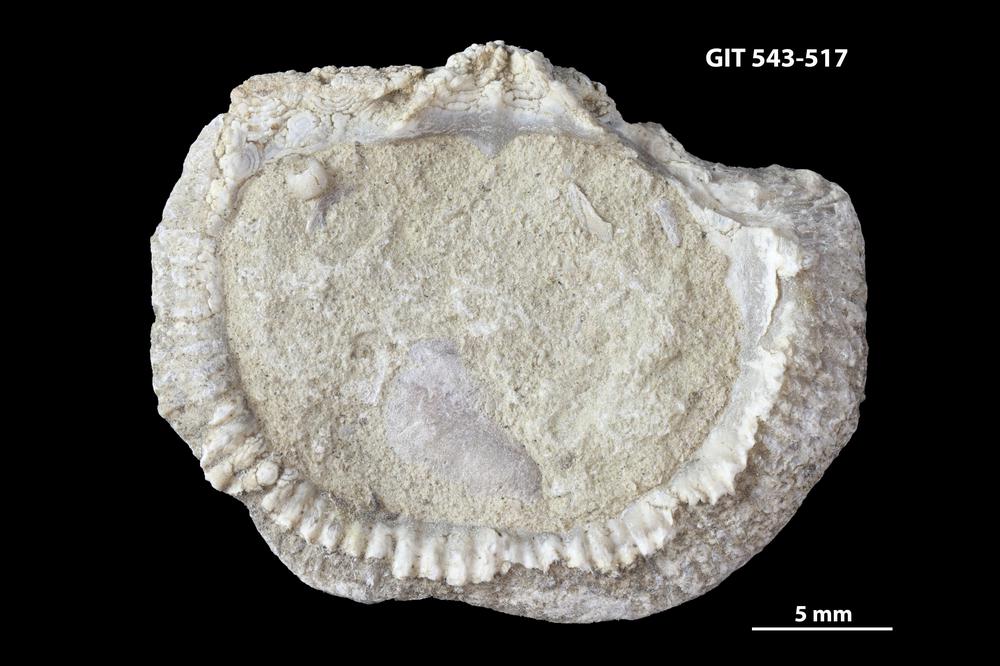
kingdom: Animalia
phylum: Brachiopoda
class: Rhynchonellata
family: Clitambonitidae
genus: Clitambonites
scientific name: Clitambonites
